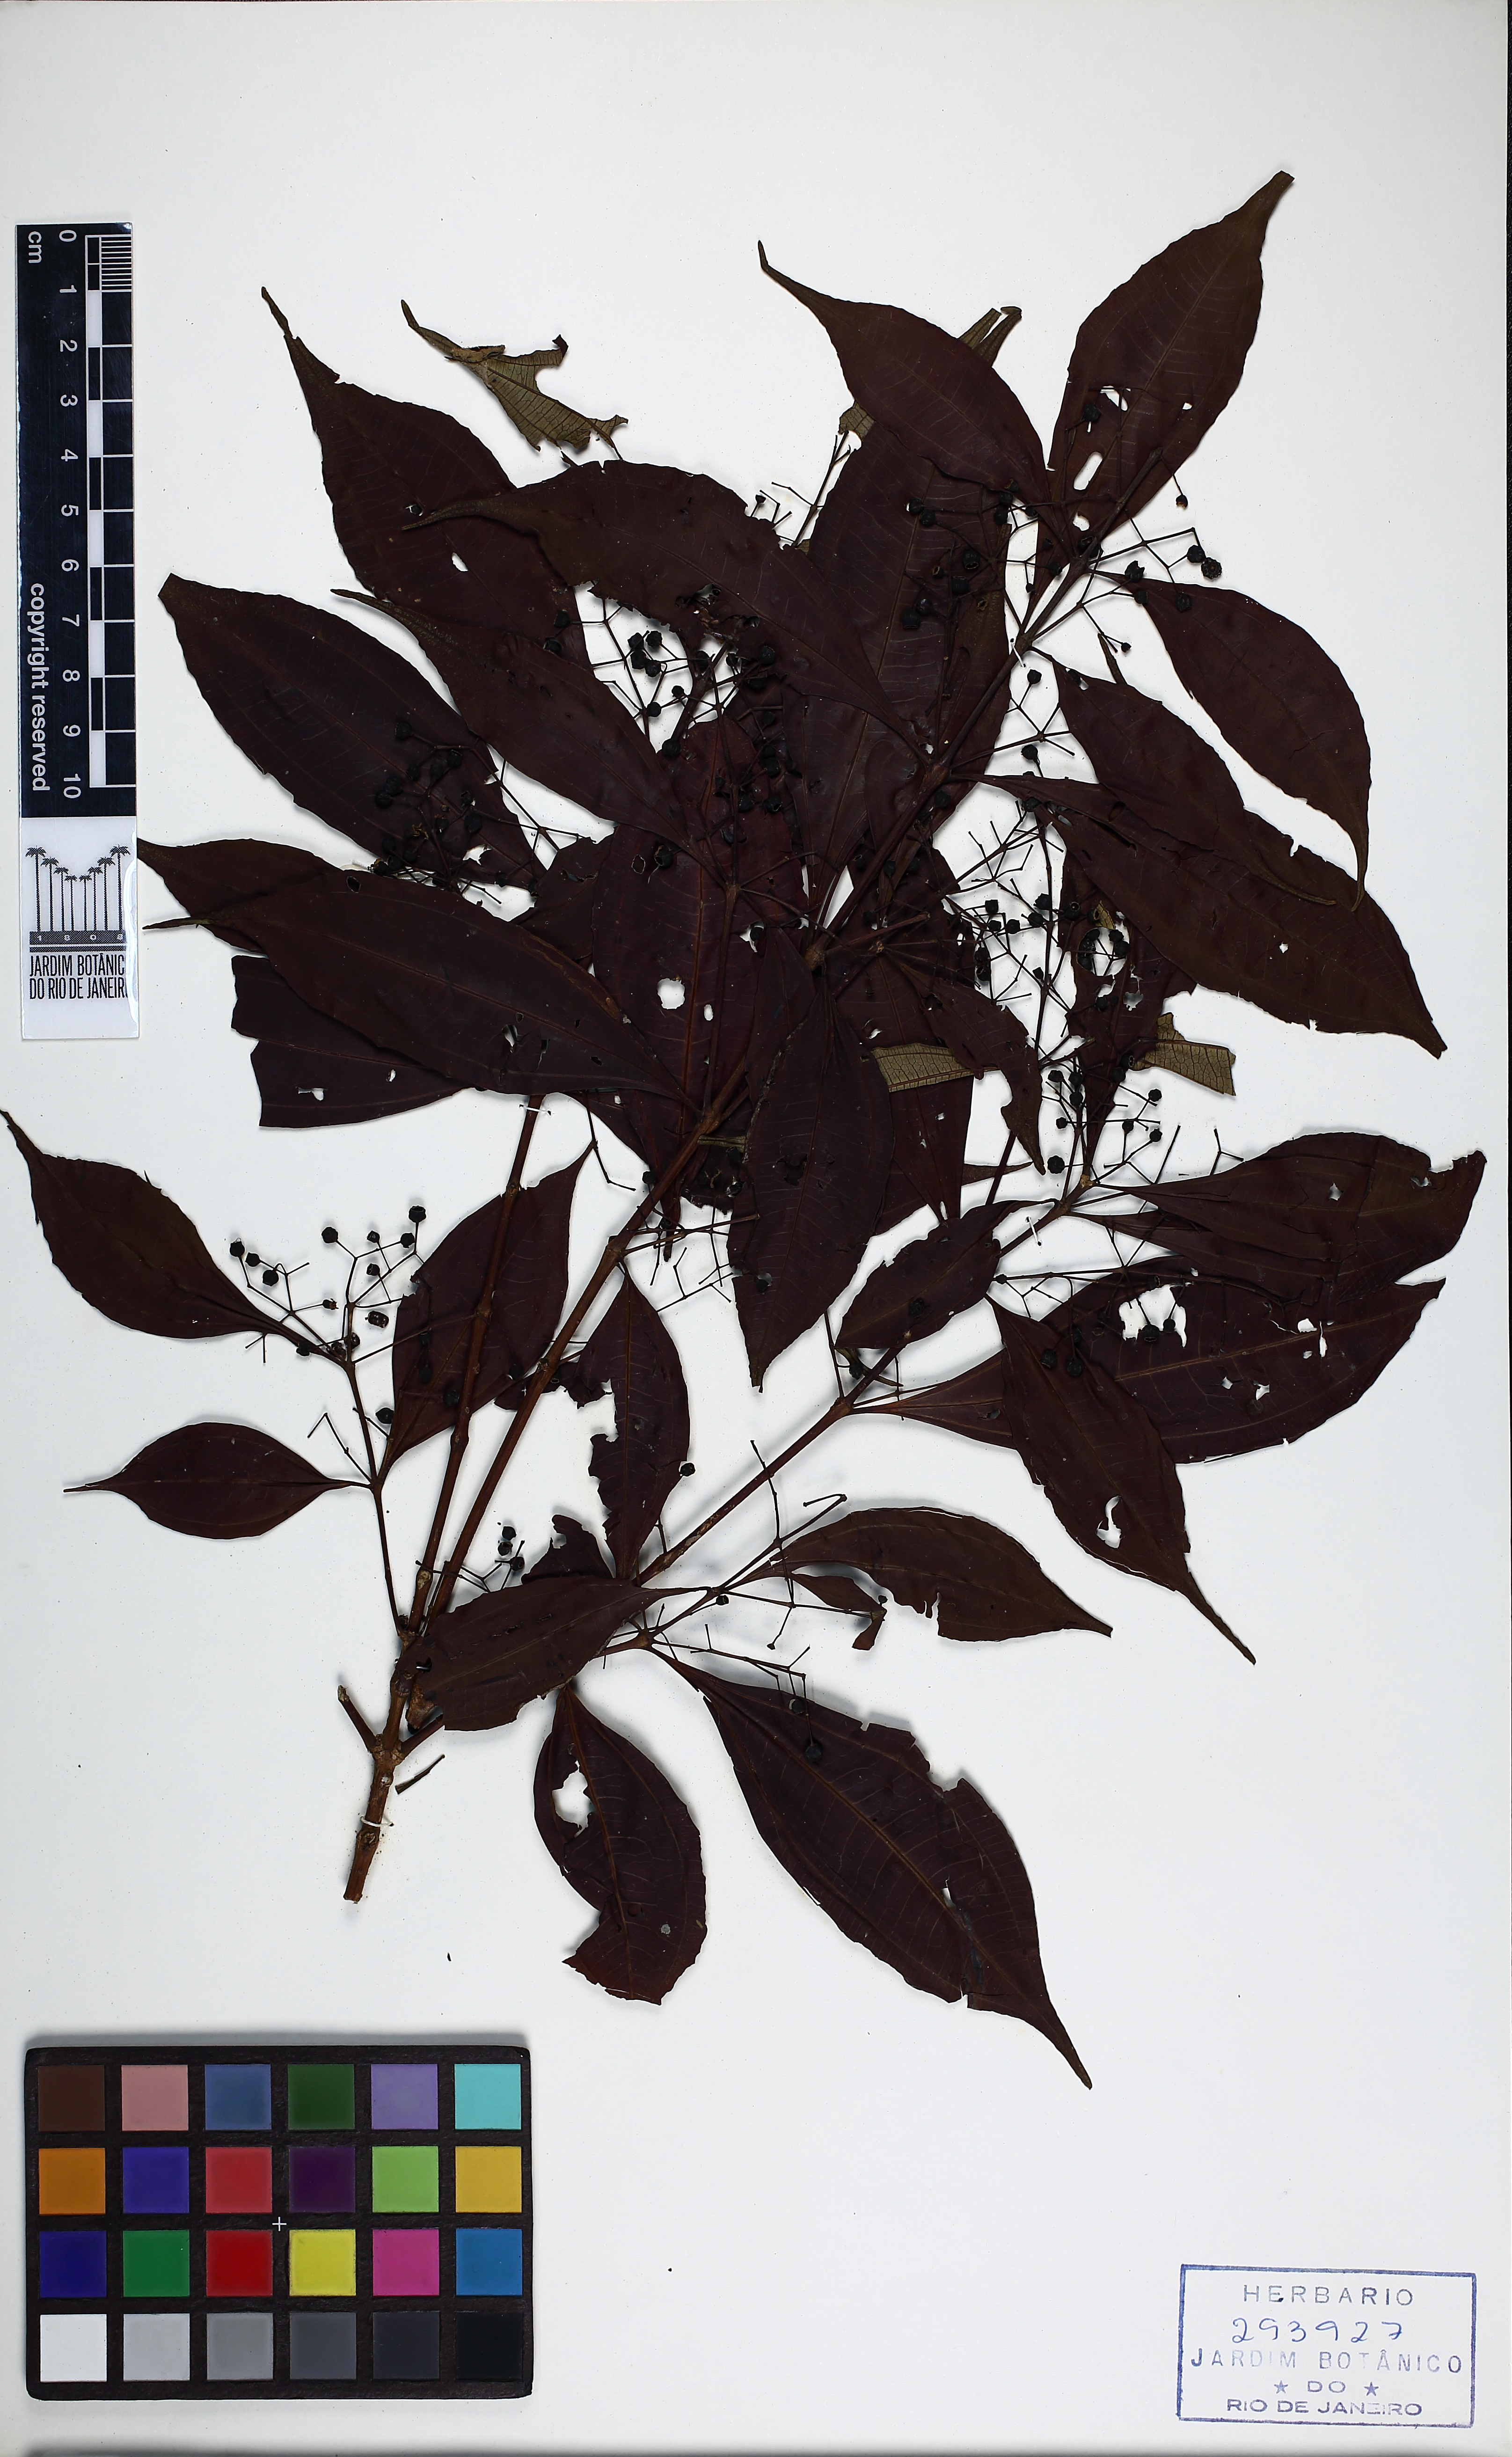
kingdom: Plantae
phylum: Tracheophyta
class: Magnoliopsida
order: Myrtales
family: Melastomataceae
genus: Miconia
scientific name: Miconia tristis
